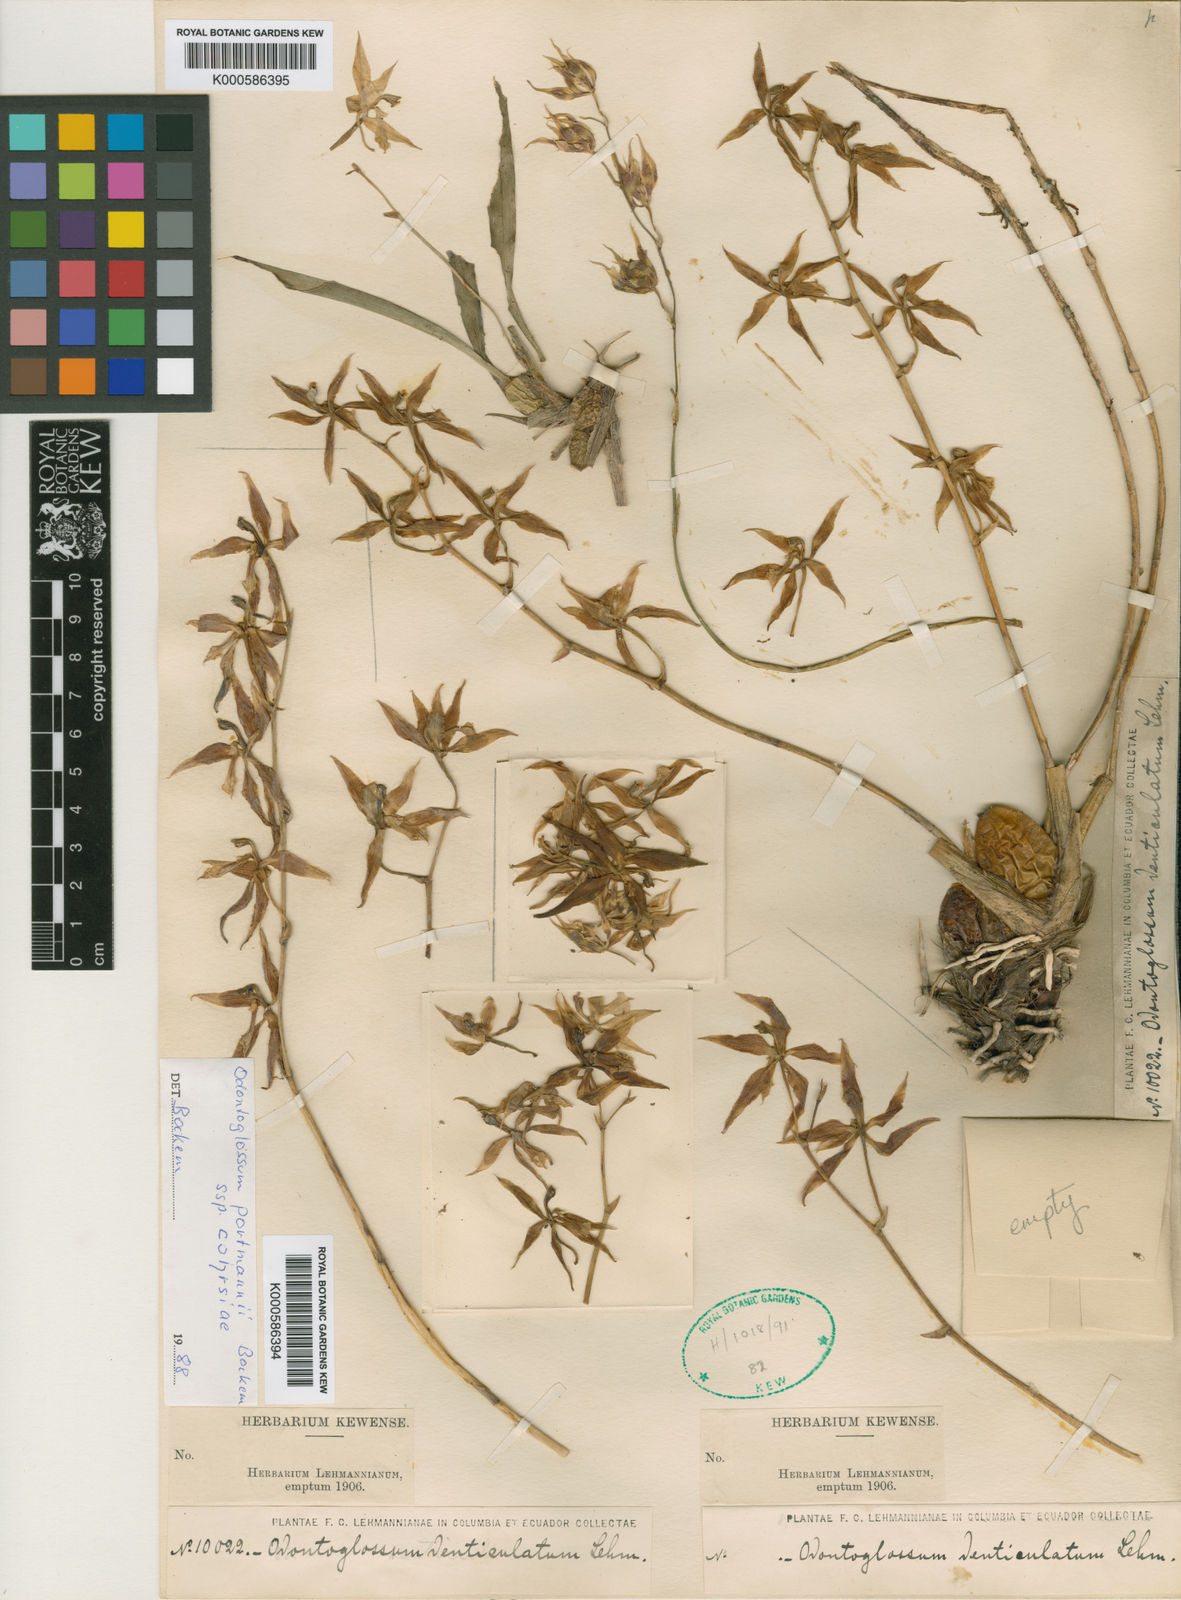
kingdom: Plantae
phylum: Tracheophyta
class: Liliopsida
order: Asparagales
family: Orchidaceae
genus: Oncidium
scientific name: Oncidium
